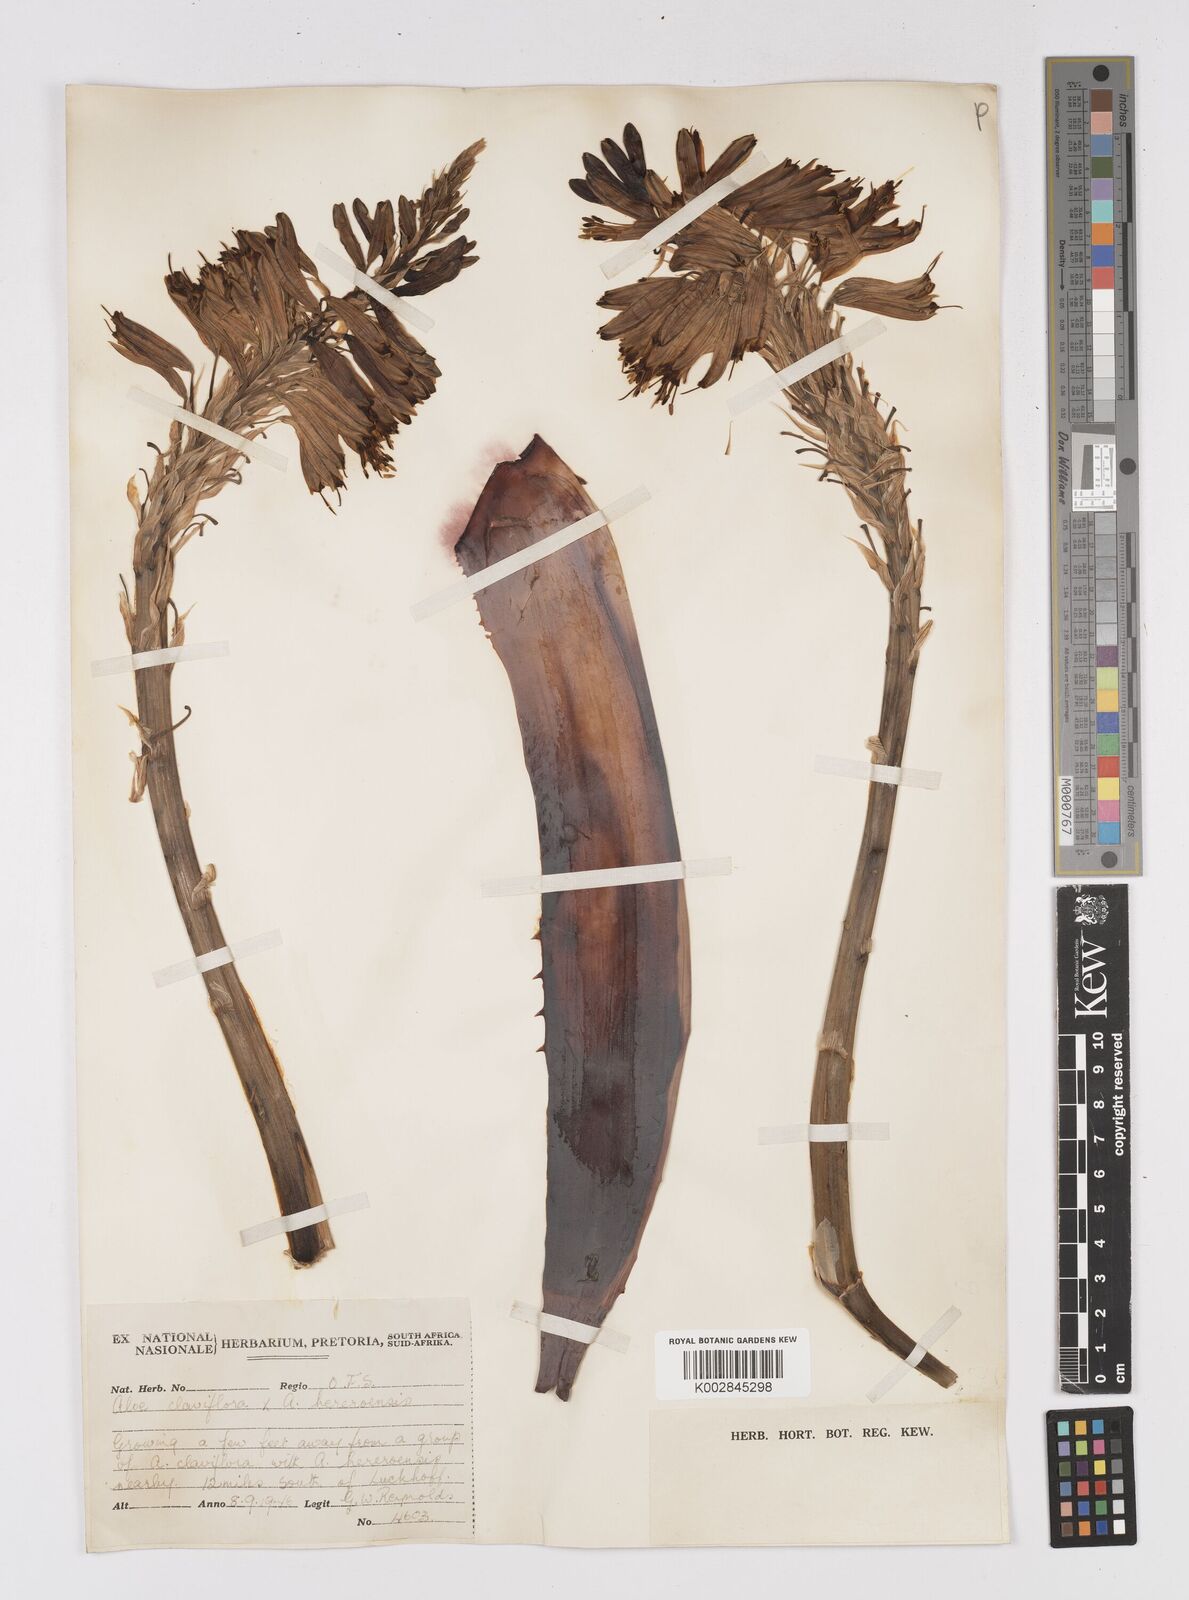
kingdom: Plantae
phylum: Tracheophyta
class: Liliopsida
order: Asparagales
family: Asphodelaceae
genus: Aloe
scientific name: Aloe
